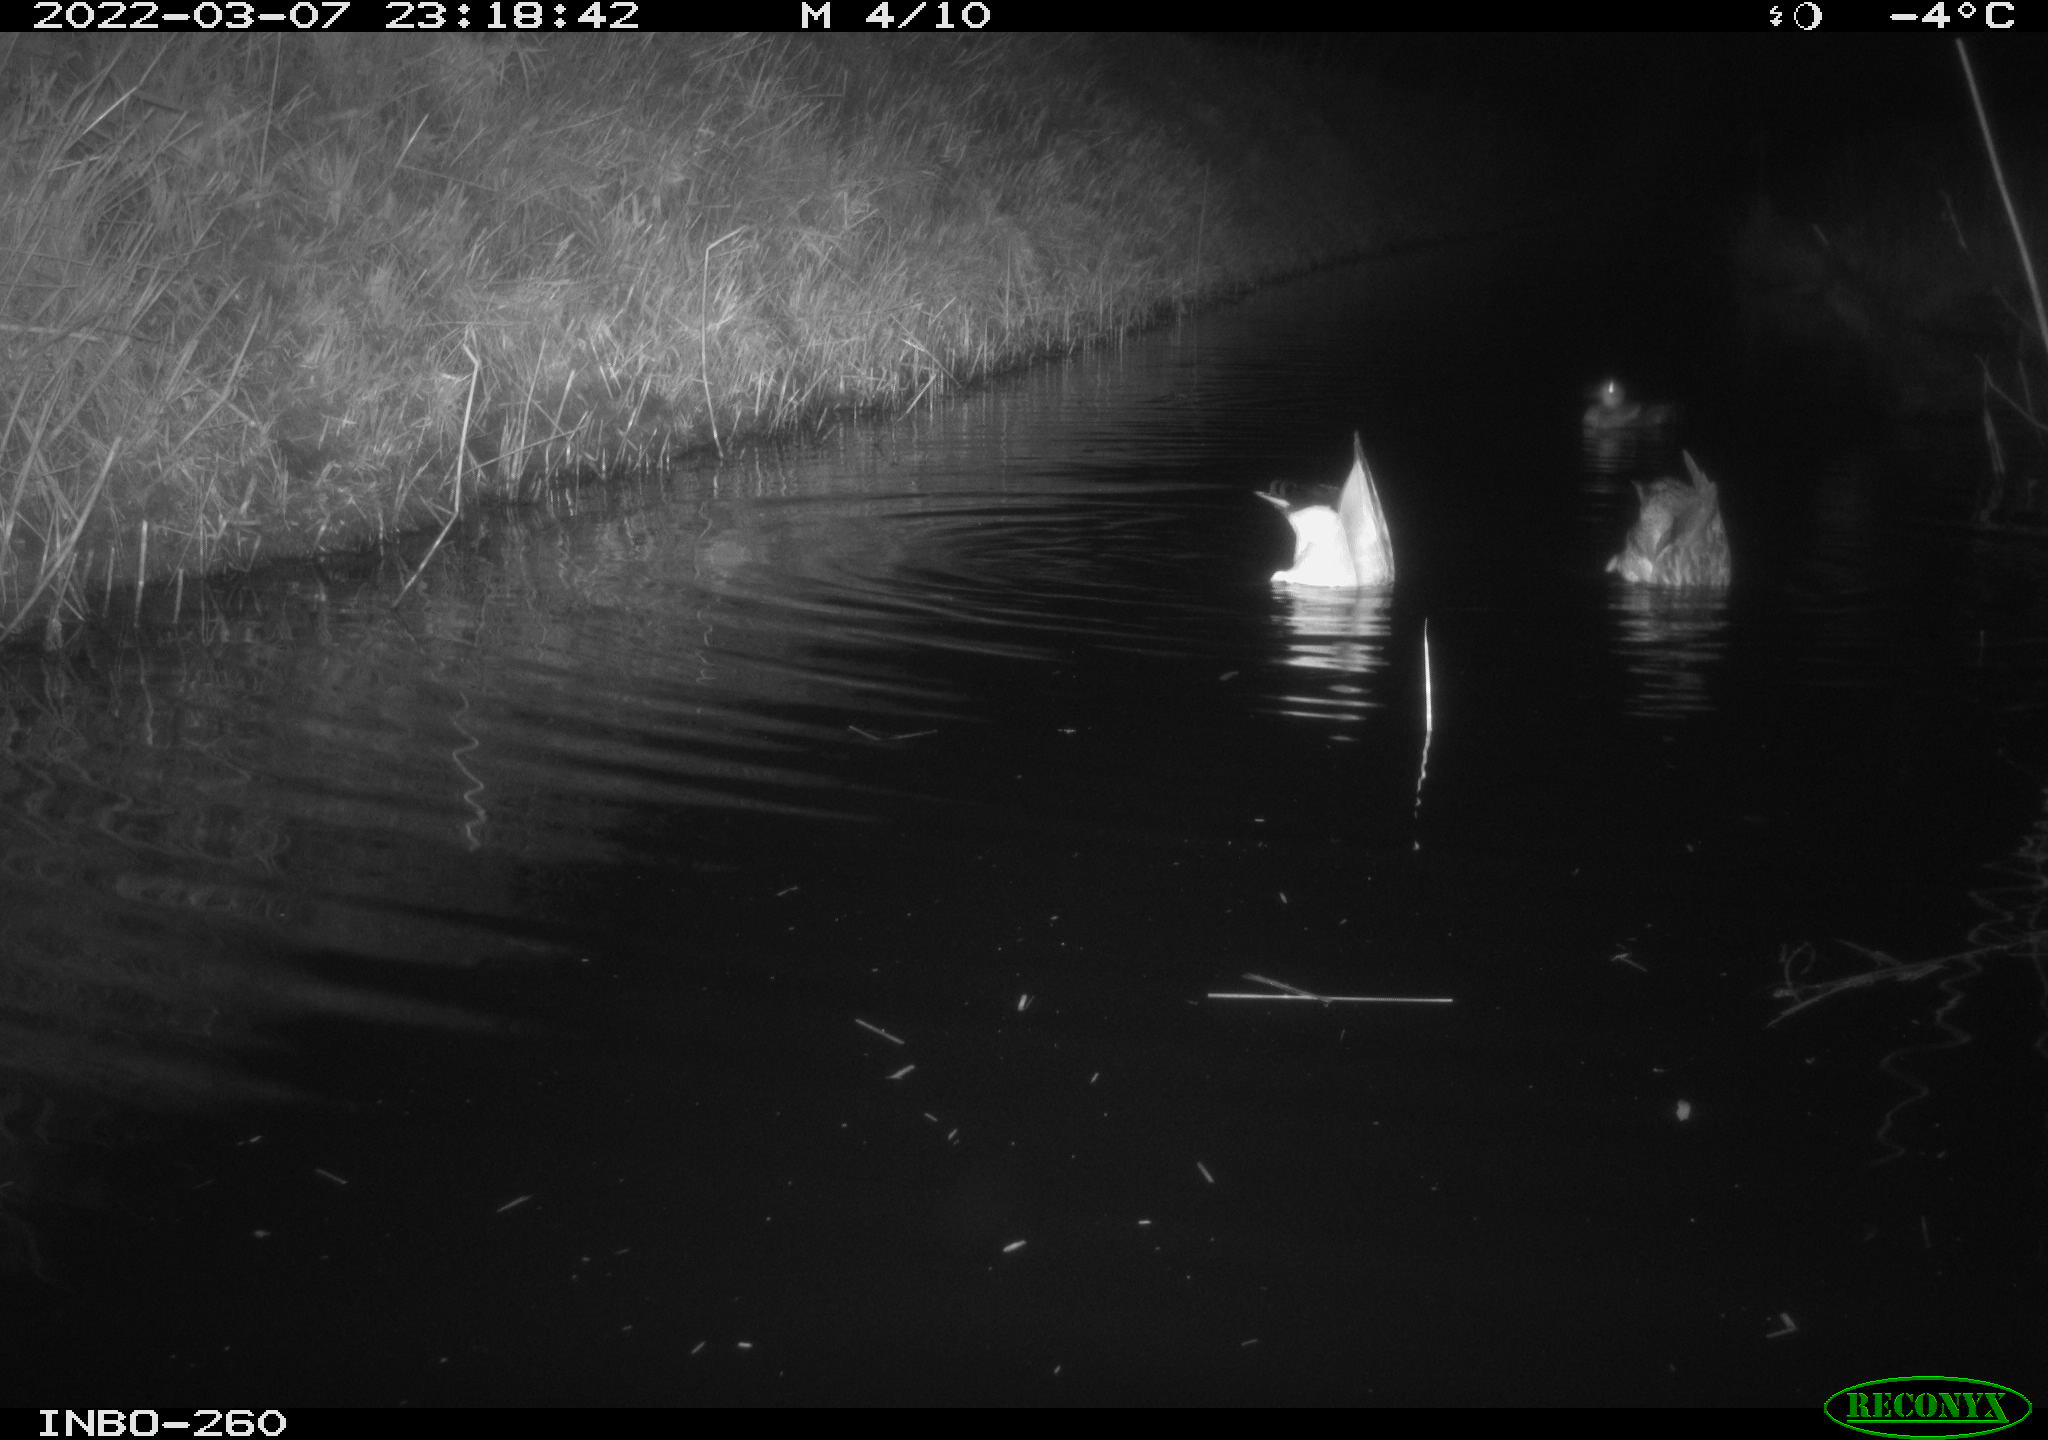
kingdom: Animalia
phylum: Chordata
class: Aves
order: Anseriformes
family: Anatidae
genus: Anas
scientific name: Anas platyrhynchos
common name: Mallard
